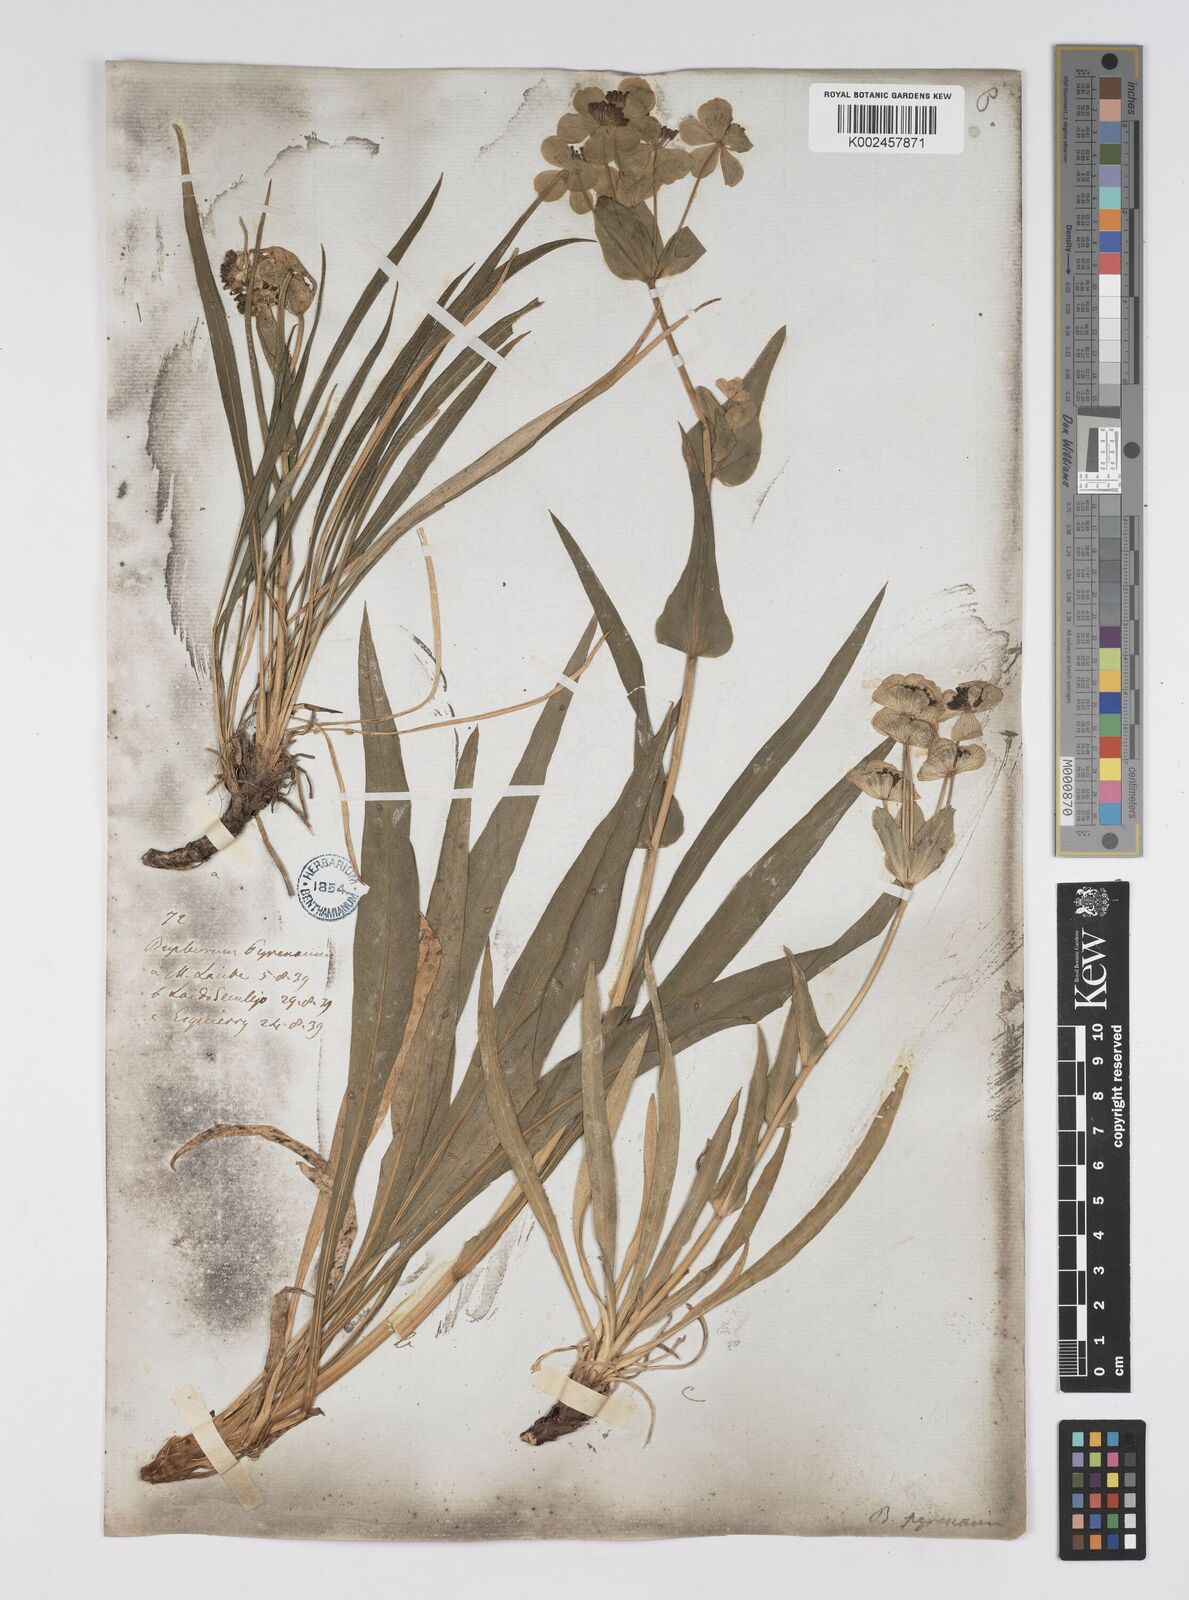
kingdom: Plantae
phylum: Tracheophyta
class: Magnoliopsida
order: Apiales
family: Apiaceae
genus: Bupleurum
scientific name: Bupleurum angulosum
